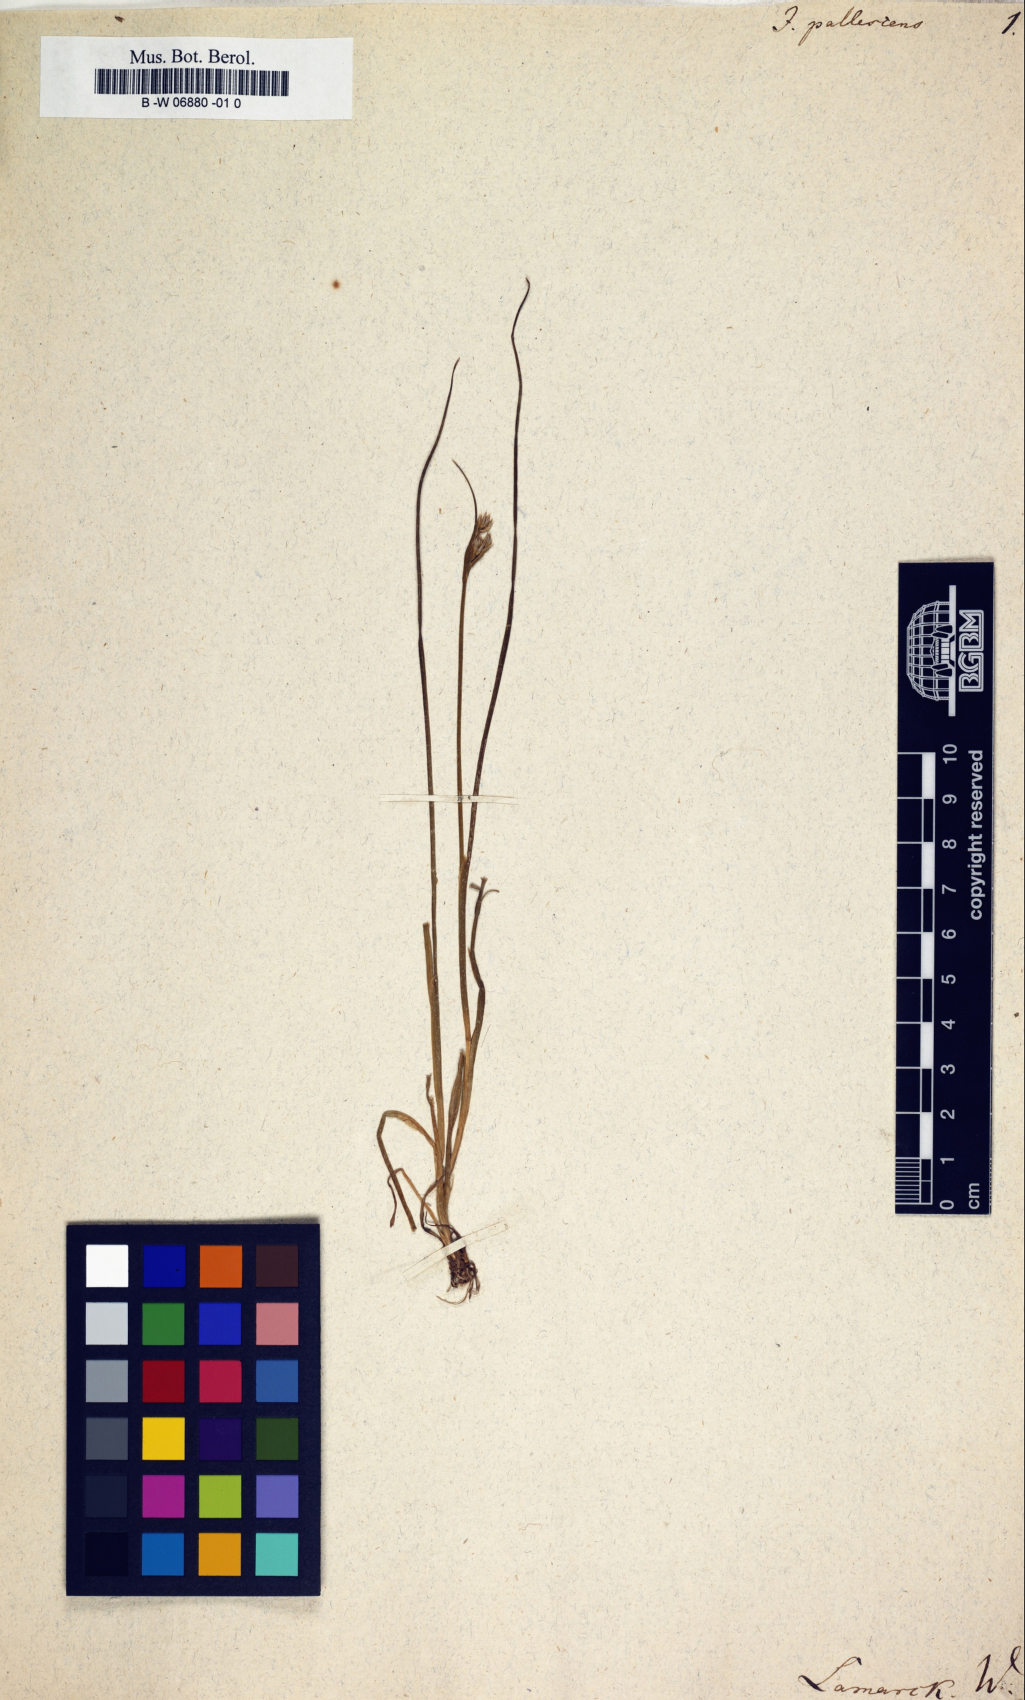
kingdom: Plantae
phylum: Tracheophyta
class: Liliopsida
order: Poales
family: Juncaceae
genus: Juncus
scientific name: Juncus pallescens
